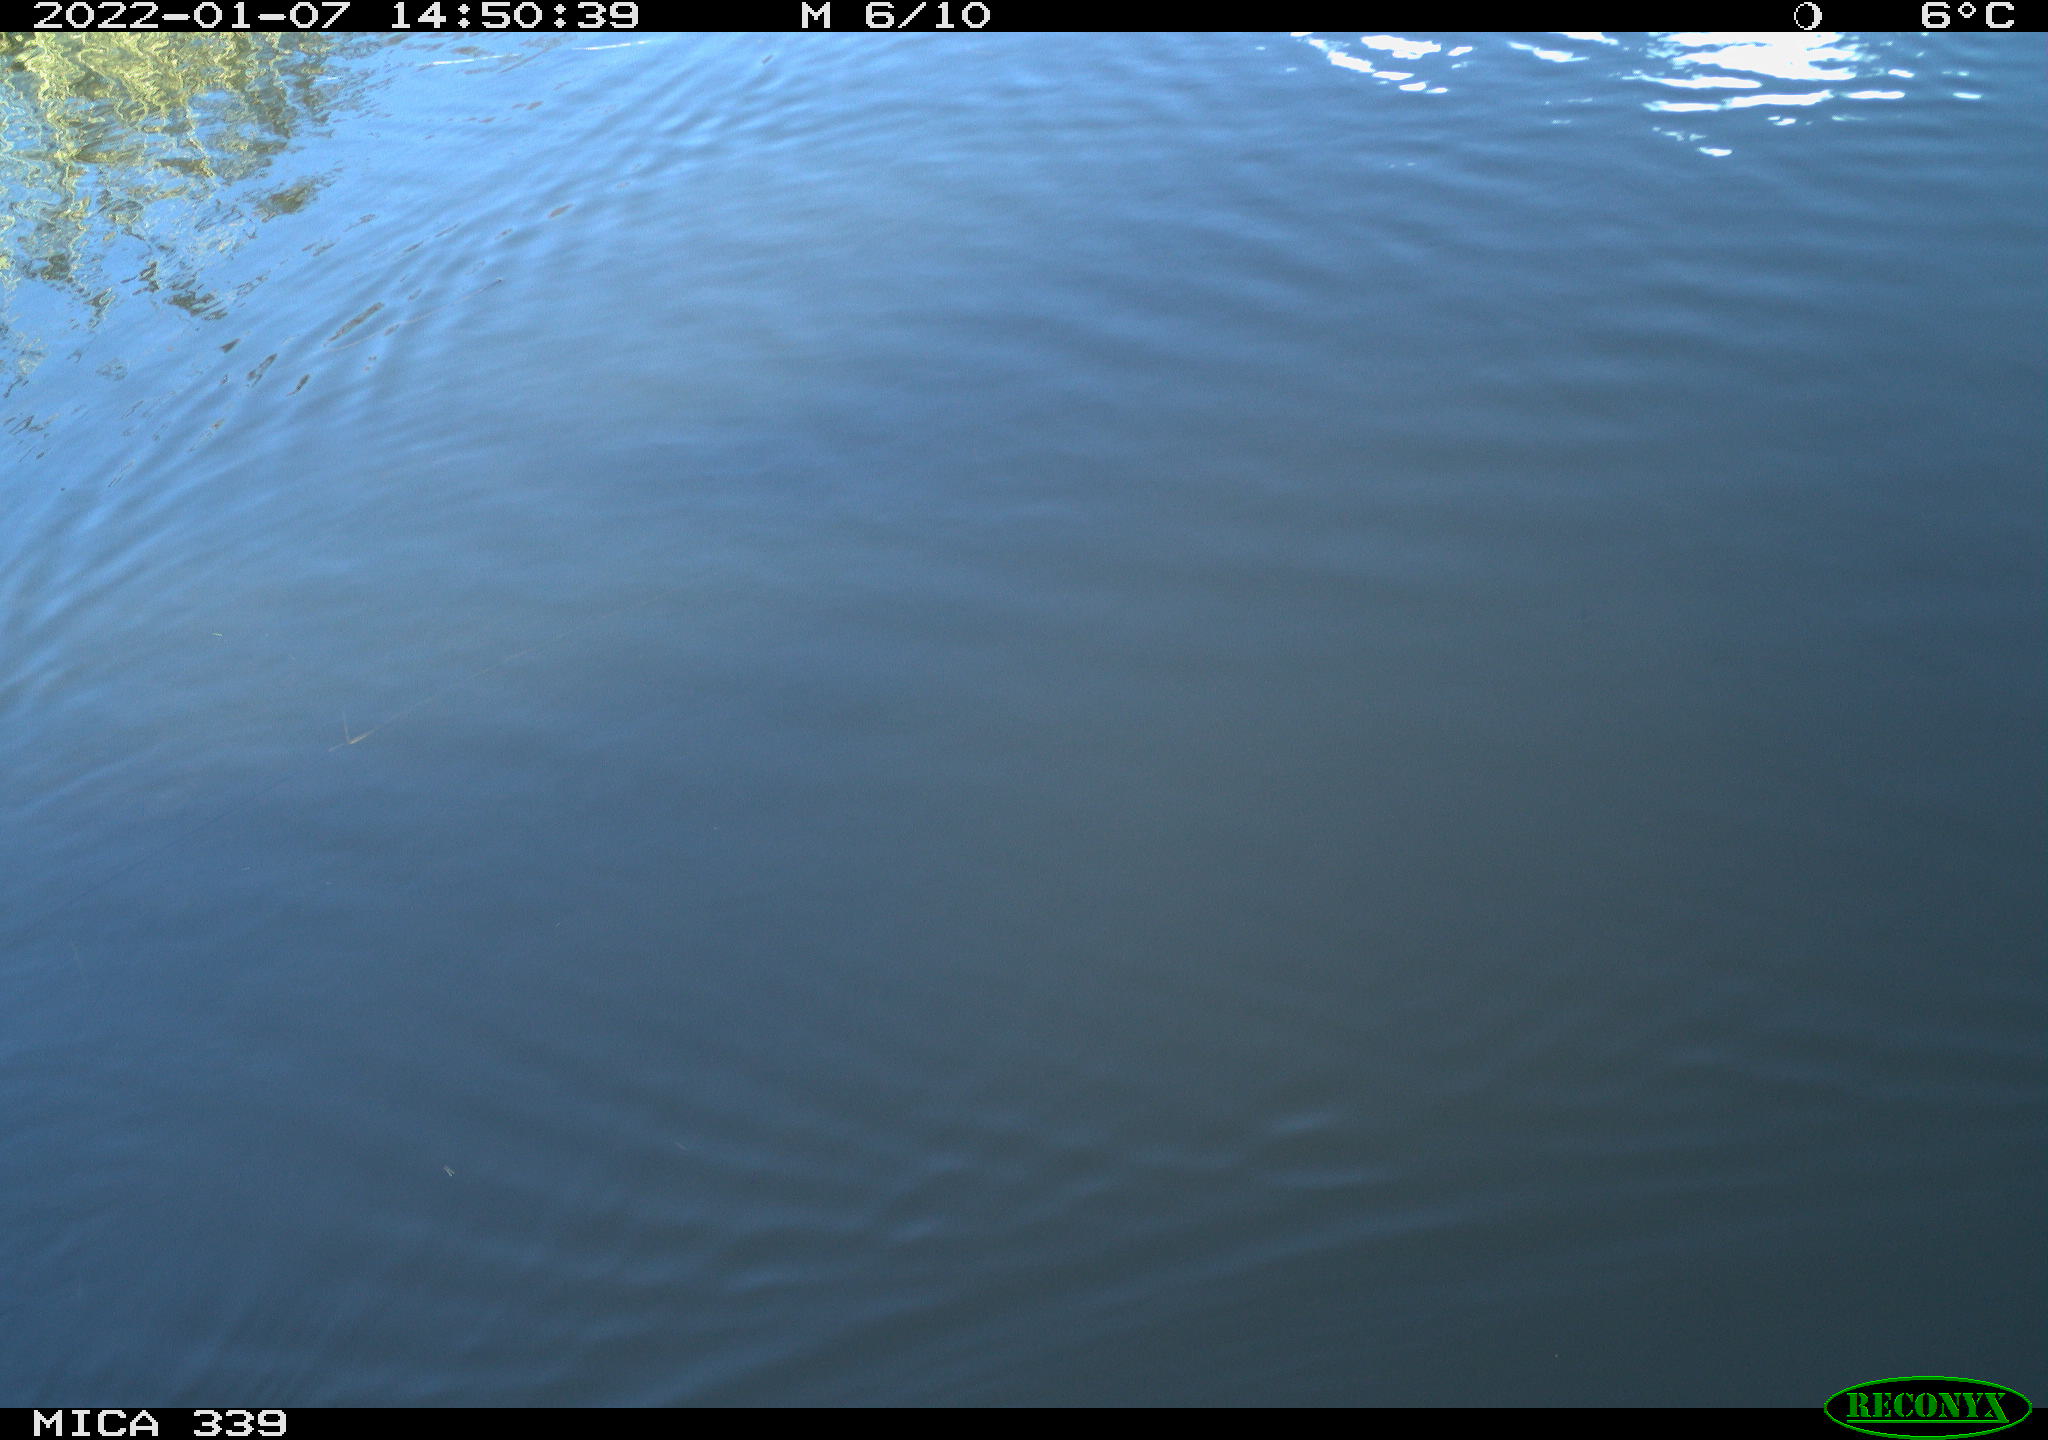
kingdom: Animalia
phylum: Chordata
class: Aves
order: Gruiformes
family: Rallidae
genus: Gallinula
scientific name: Gallinula chloropus
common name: Common moorhen
